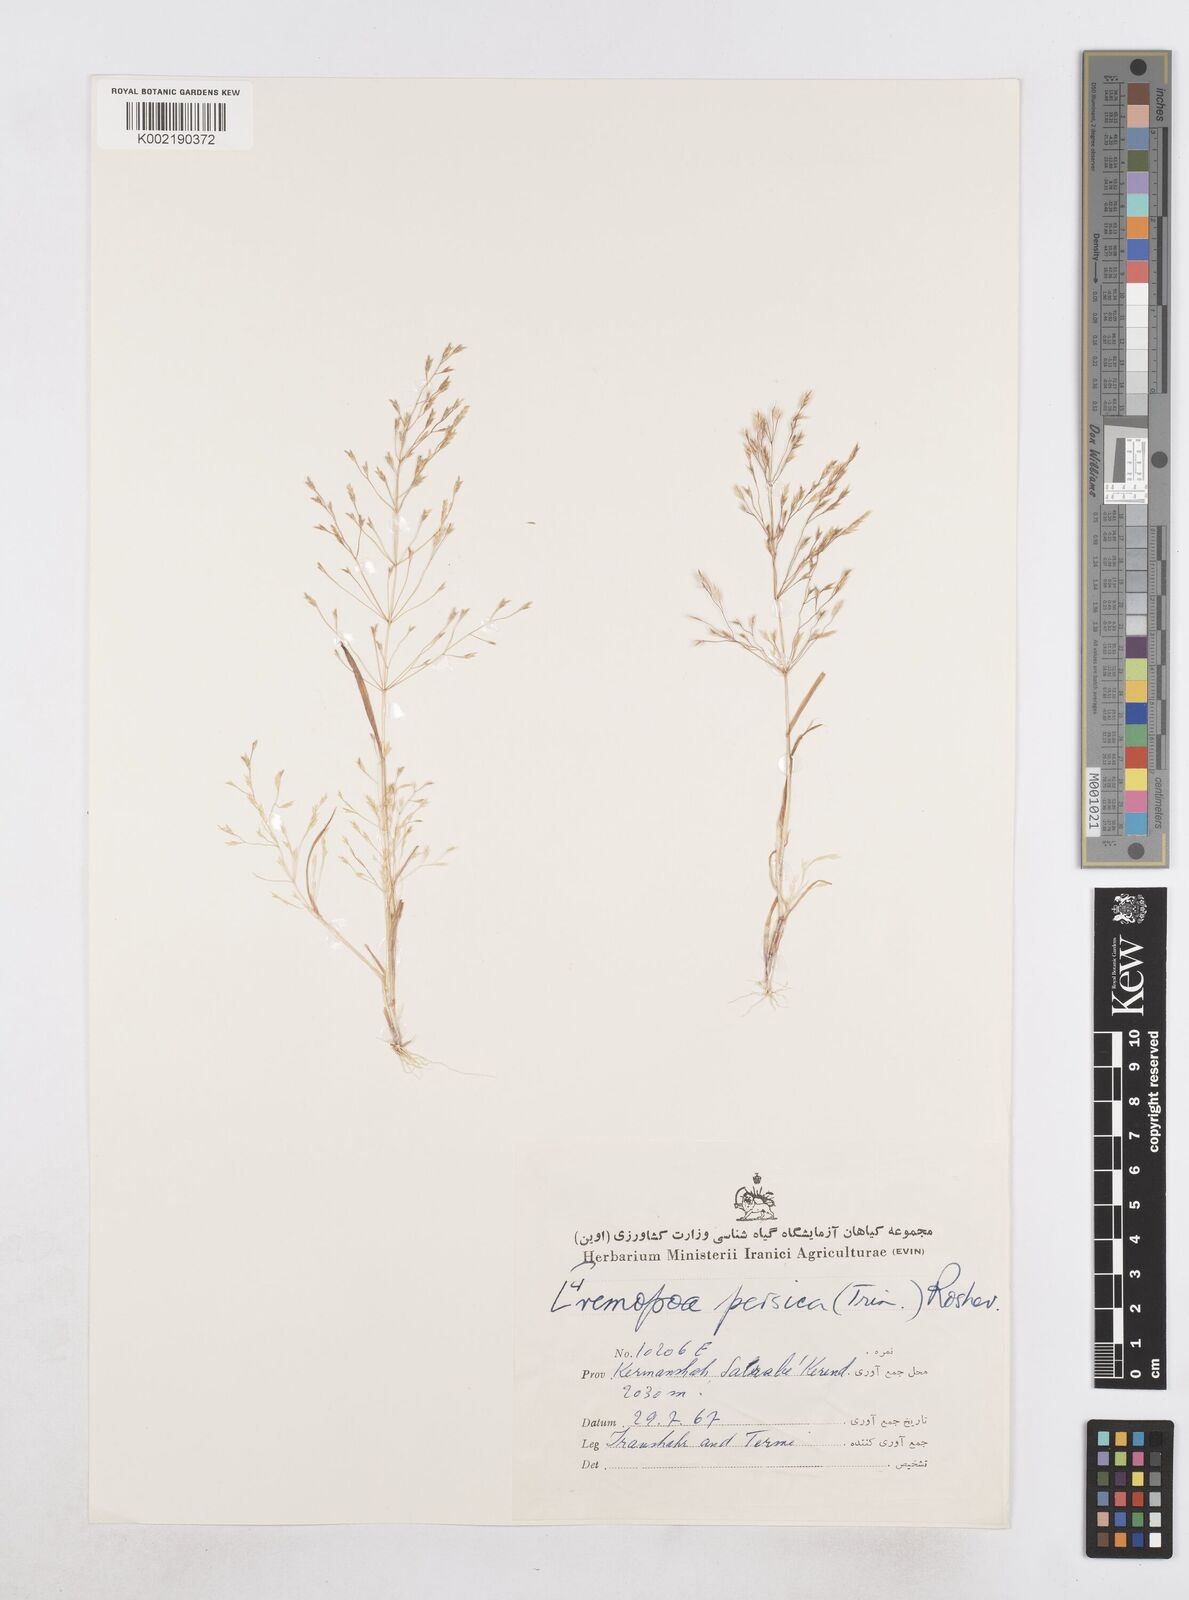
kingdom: Plantae
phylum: Tracheophyta
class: Liliopsida
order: Poales
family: Poaceae
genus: Poa
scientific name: Poa persica
